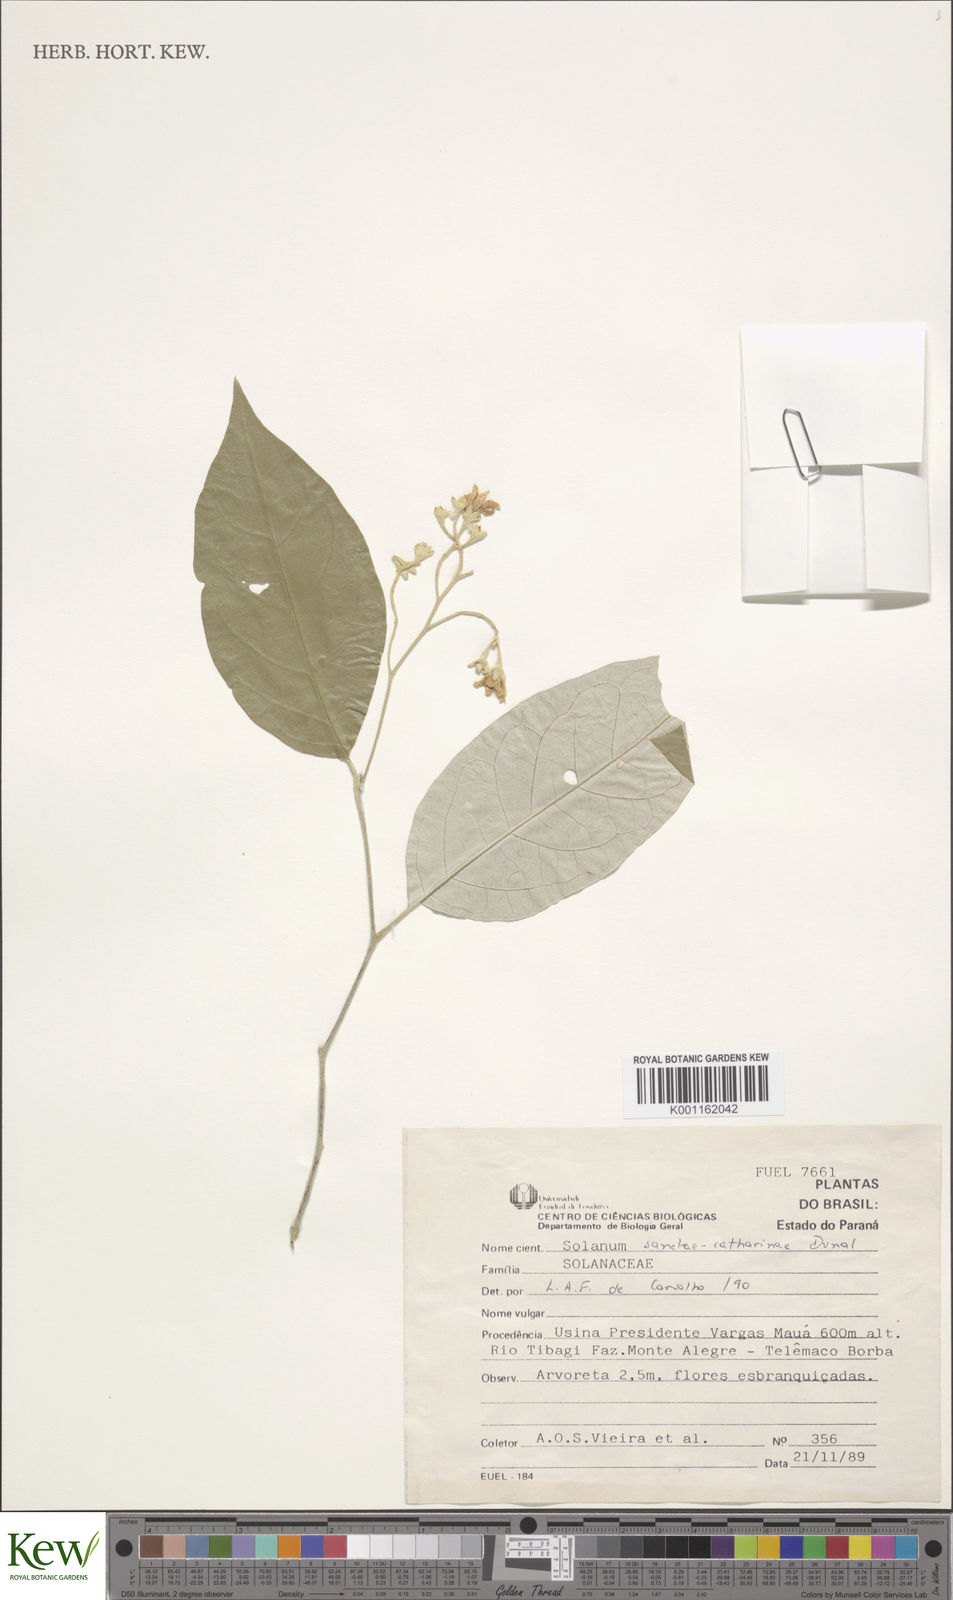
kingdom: Plantae
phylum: Tracheophyta
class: Magnoliopsida
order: Solanales
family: Solanaceae
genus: Solanum
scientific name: Solanum sanctae-catharinae
